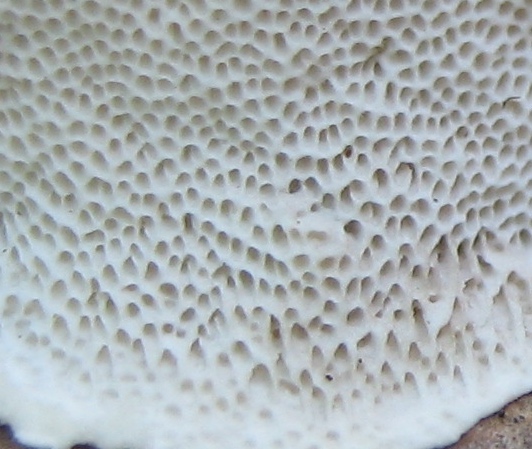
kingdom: Fungi
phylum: Basidiomycota
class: Agaricomycetes
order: Polyporales
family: Incrustoporiaceae
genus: Tyromyces
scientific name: Tyromyces lacteus
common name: mælkehvid kødporesvamp
